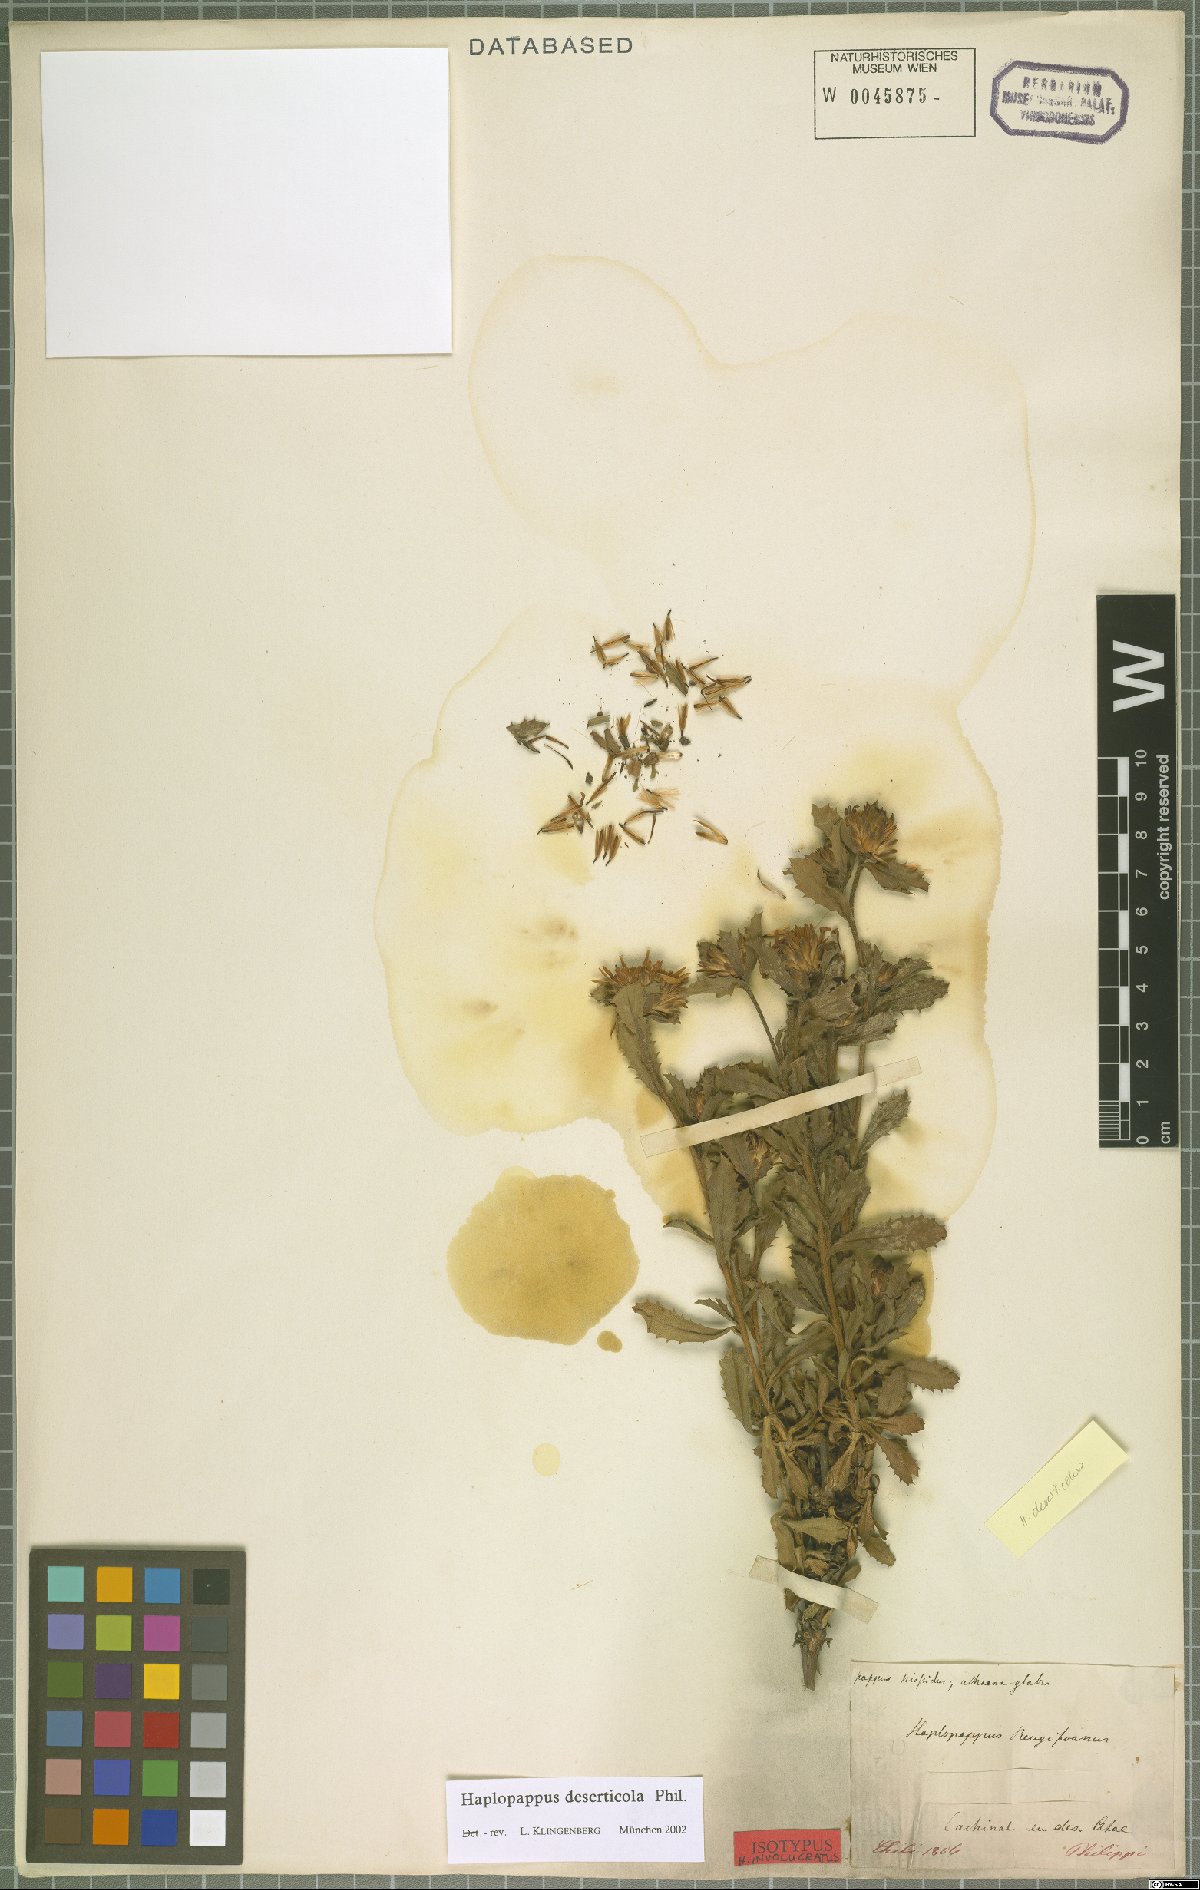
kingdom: Plantae
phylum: Tracheophyta
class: Magnoliopsida
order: Asterales
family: Asteraceae
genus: Haplopappus
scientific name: Haplopappus deserticola
